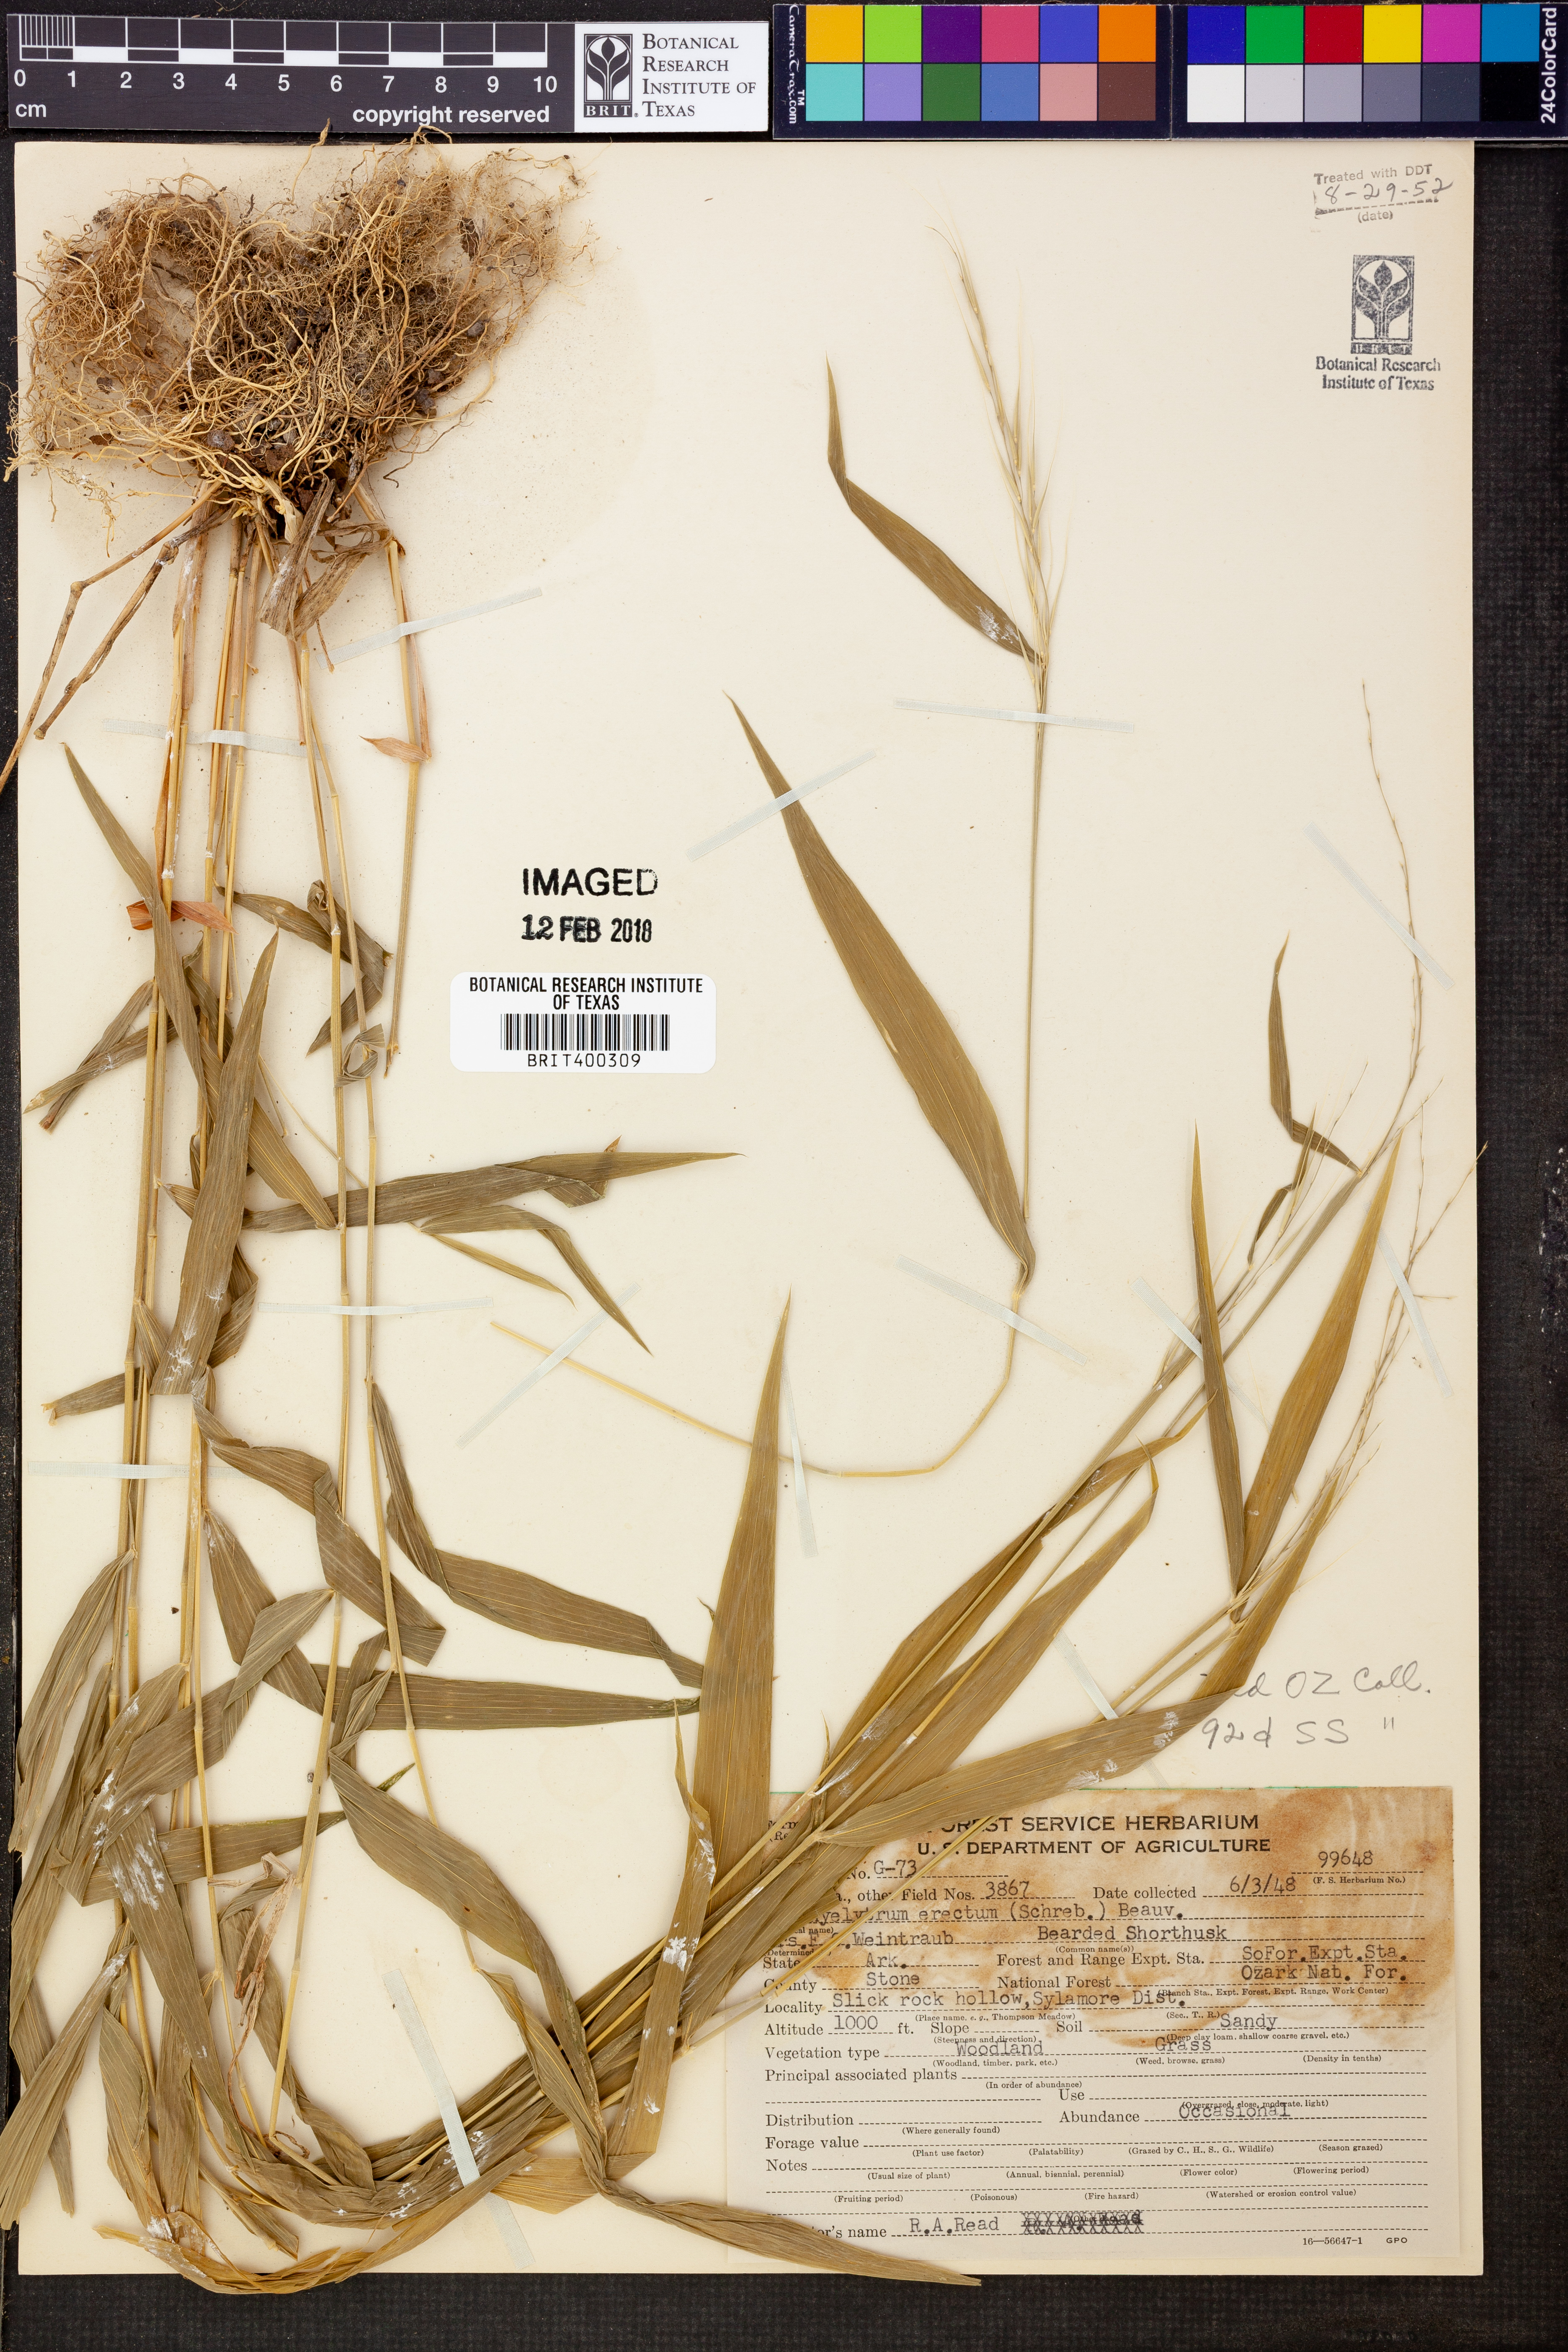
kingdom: Plantae
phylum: Tracheophyta
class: Liliopsida
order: Poales
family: Poaceae
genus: Brachyelytrum
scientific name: Brachyelytrum erectum
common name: Bearded shorthusk
